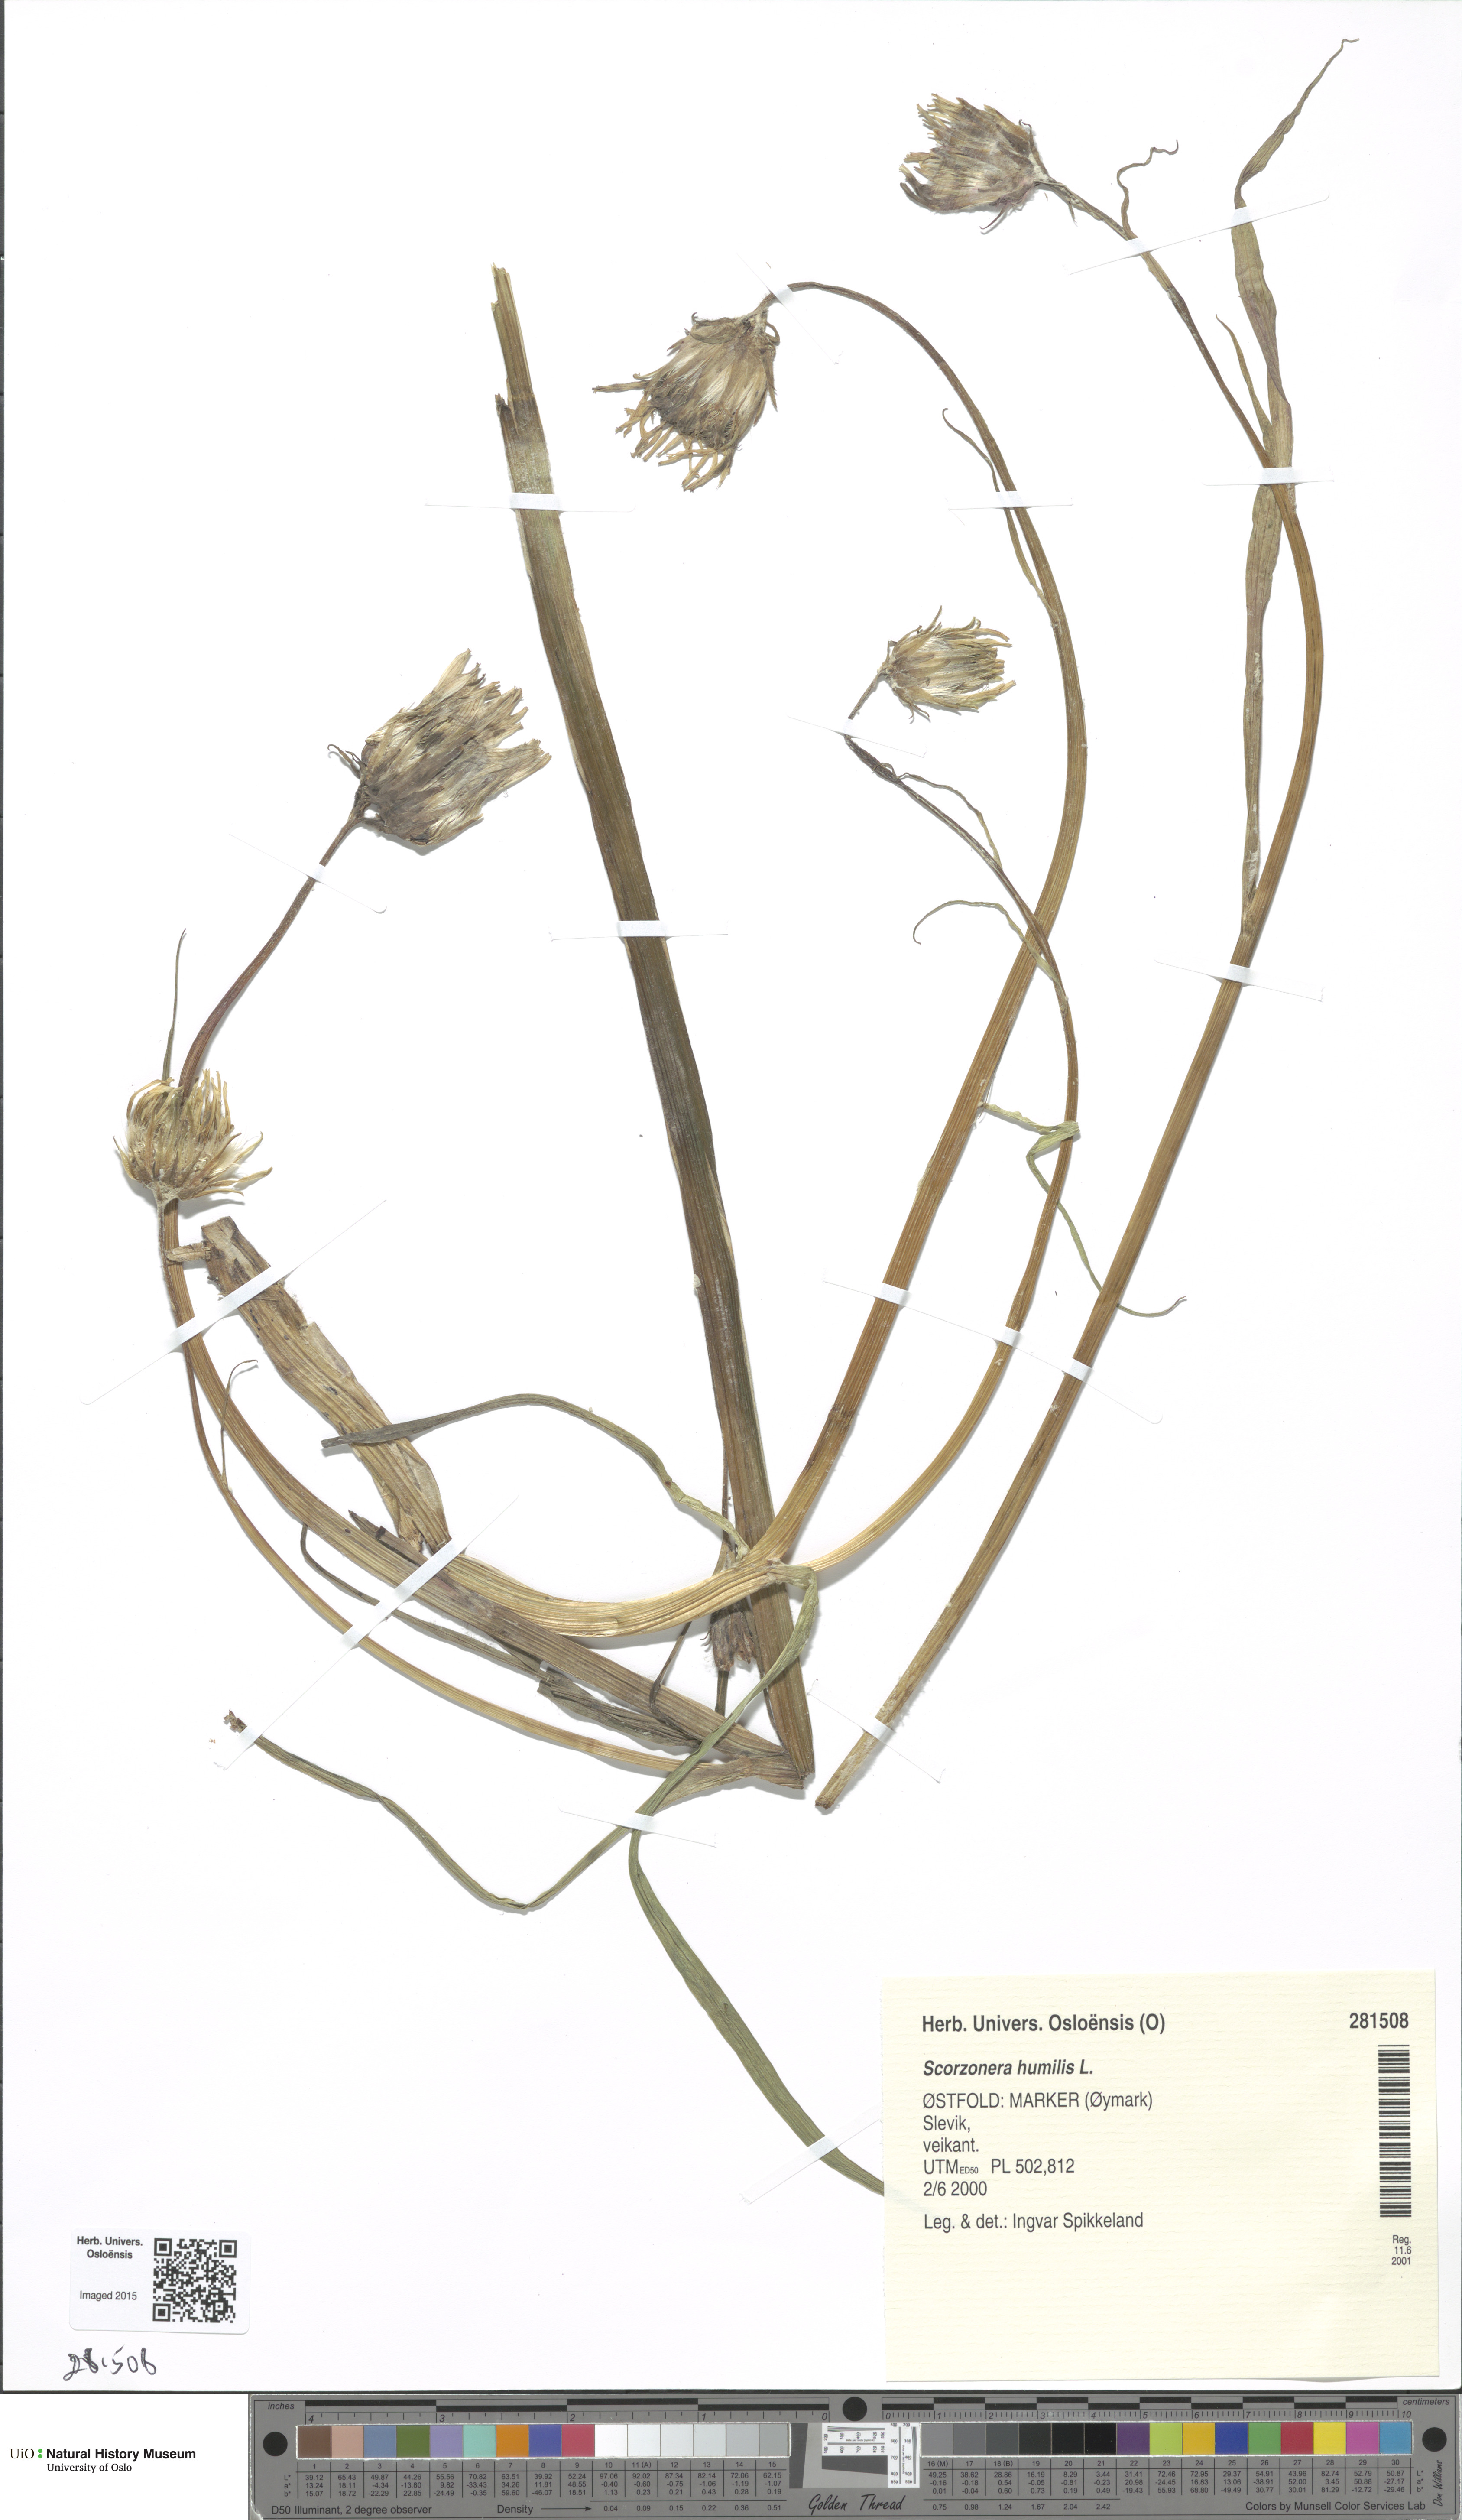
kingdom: Plantae
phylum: Tracheophyta
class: Magnoliopsida
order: Asterales
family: Asteraceae
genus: Scorzonera
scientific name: Scorzonera humilis
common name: Viper's-grass
